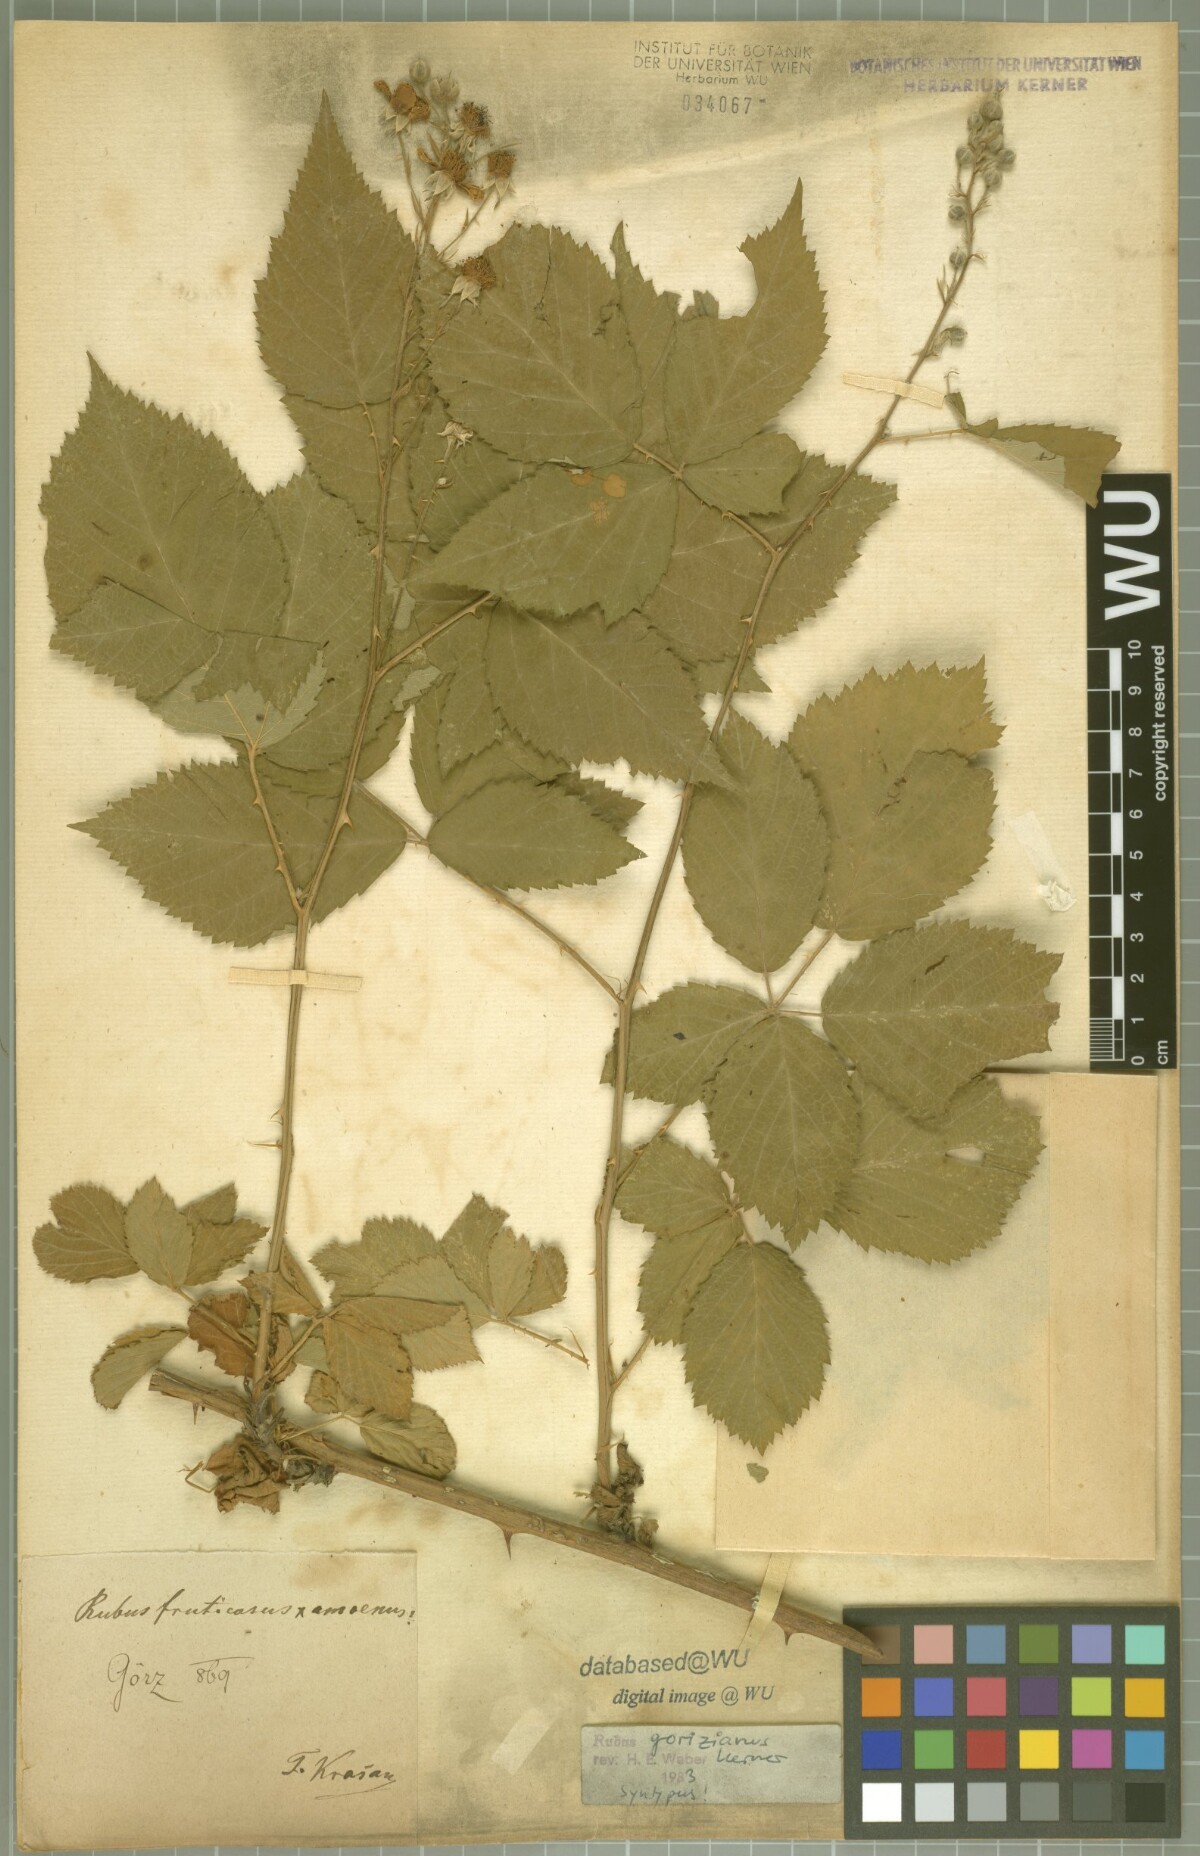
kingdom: Plantae
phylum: Tracheophyta
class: Magnoliopsida
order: Rosales
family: Rosaceae
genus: Rubus
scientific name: Rubus gorizianus
